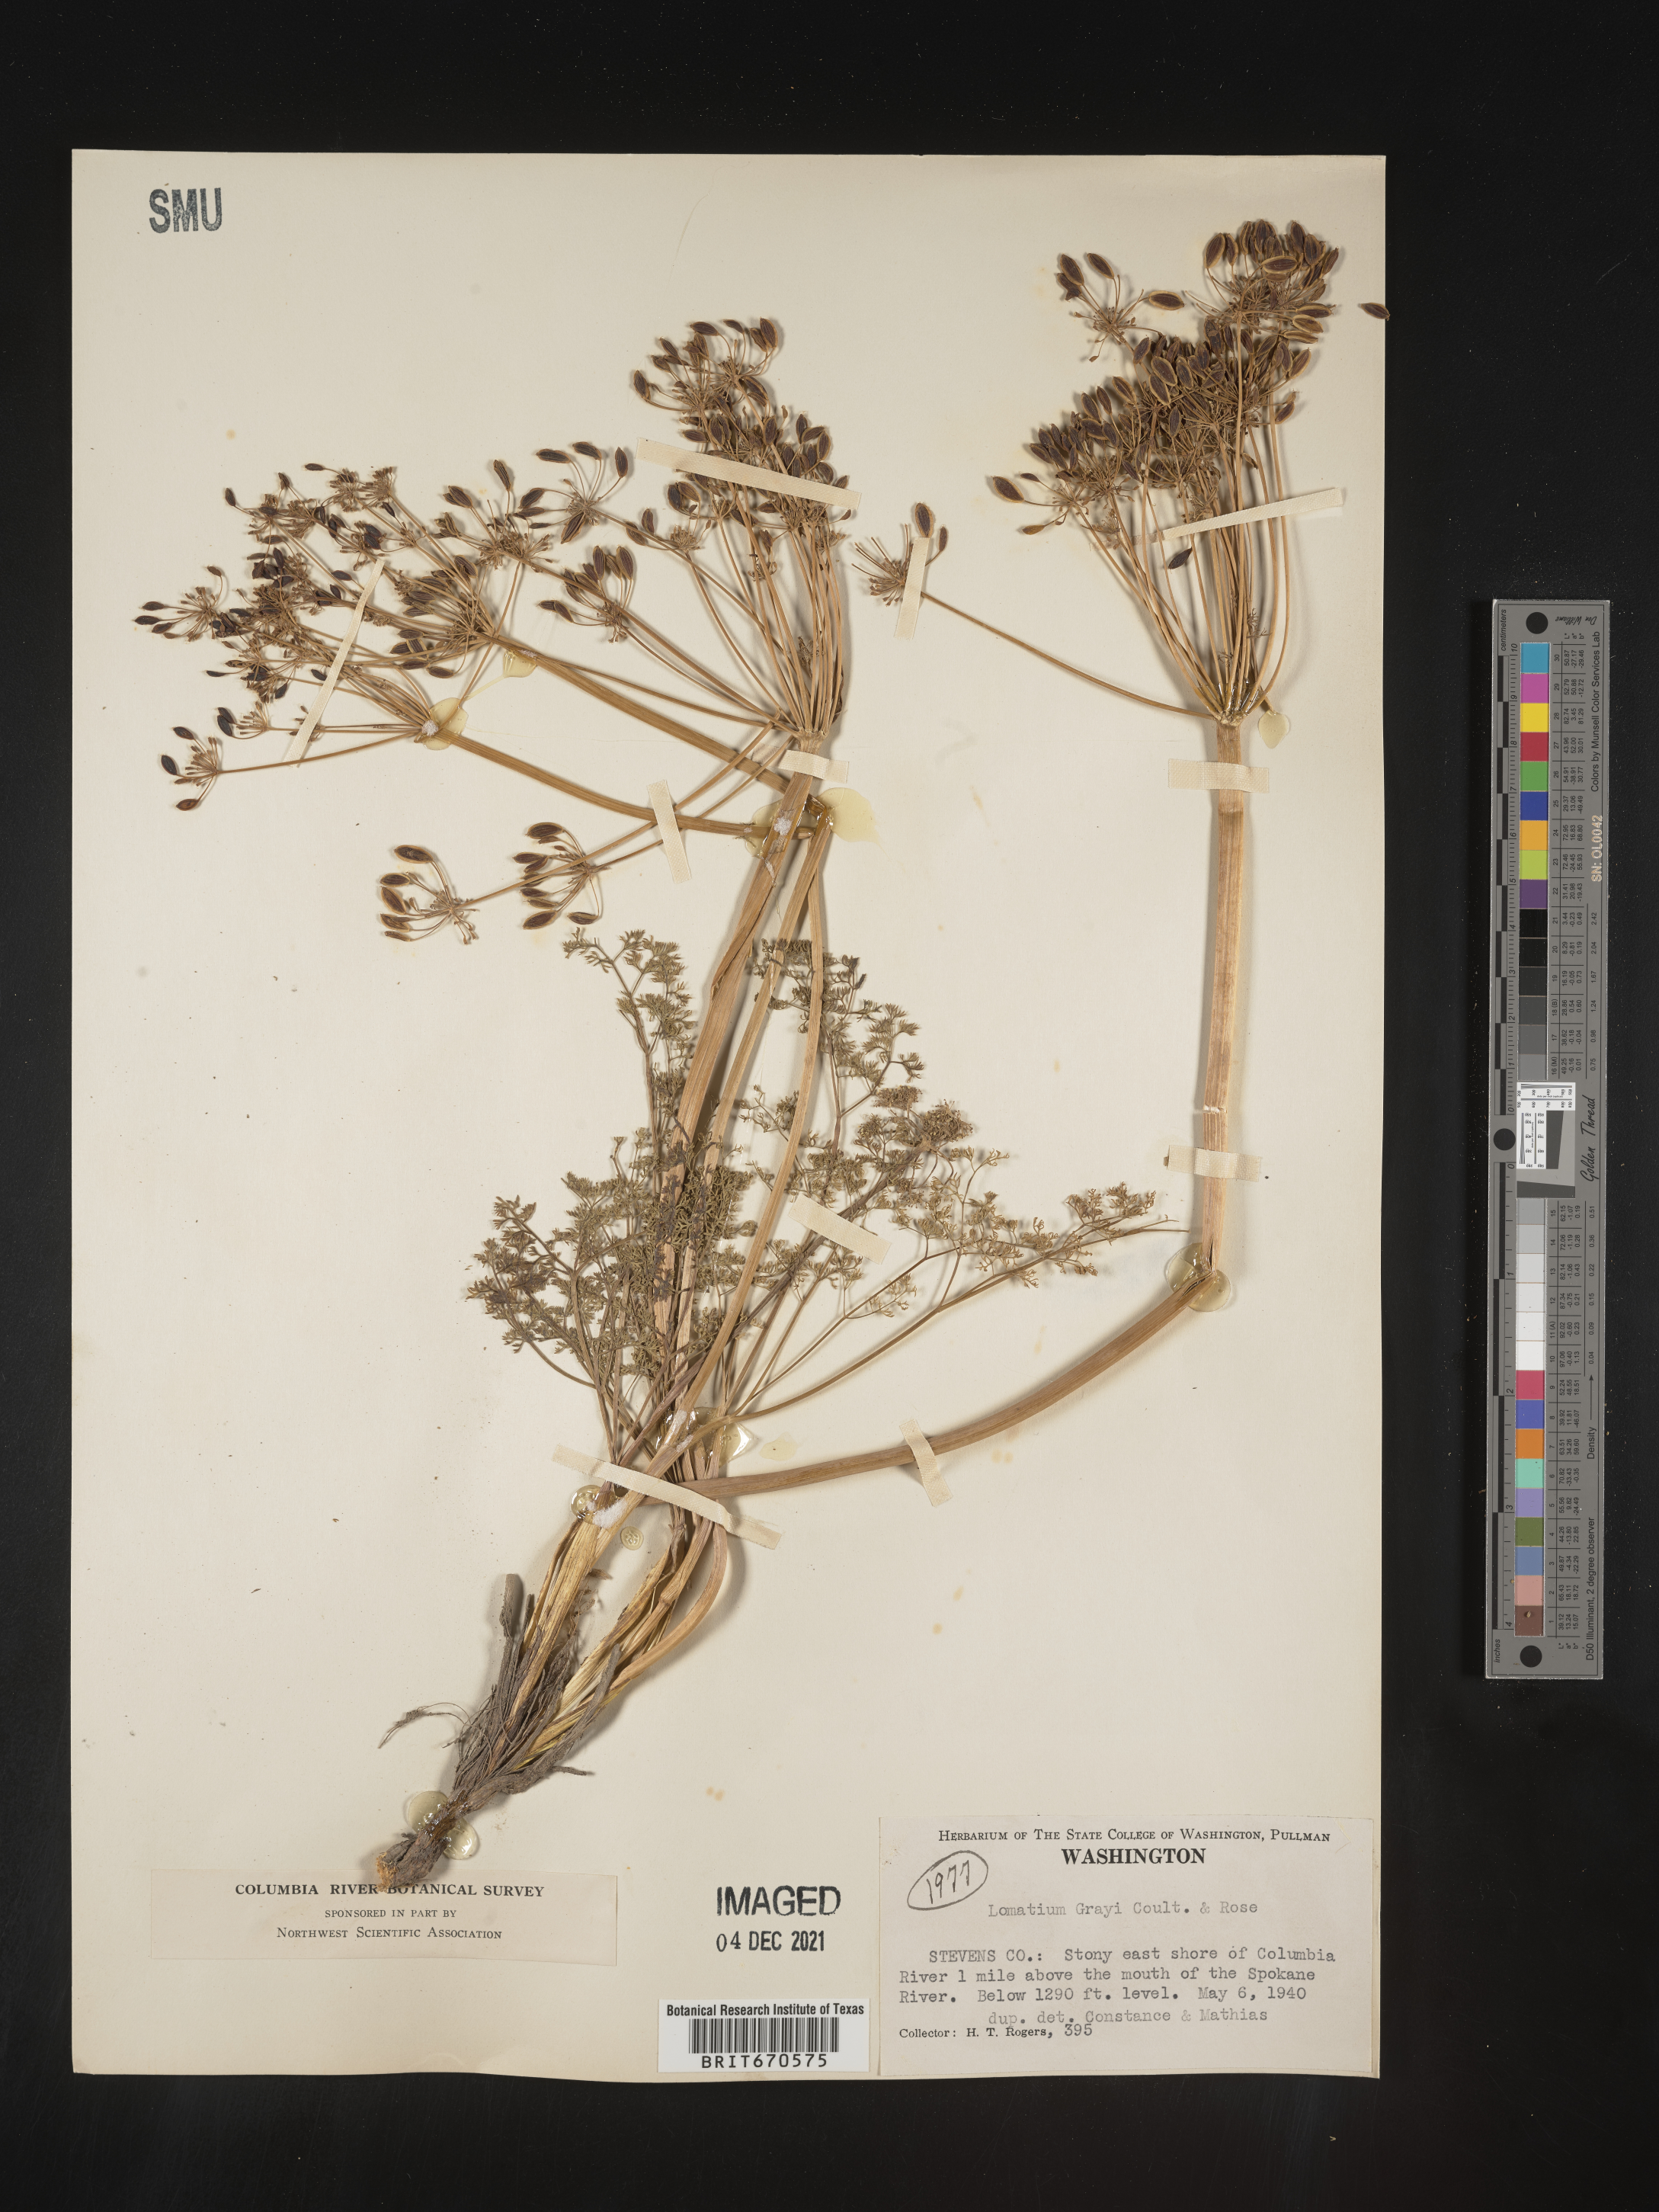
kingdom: Plantae
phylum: Tracheophyta
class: Magnoliopsida
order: Apiales
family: Apiaceae
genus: Lomatium
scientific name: Lomatium grayi
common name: Milfoil lomatium
